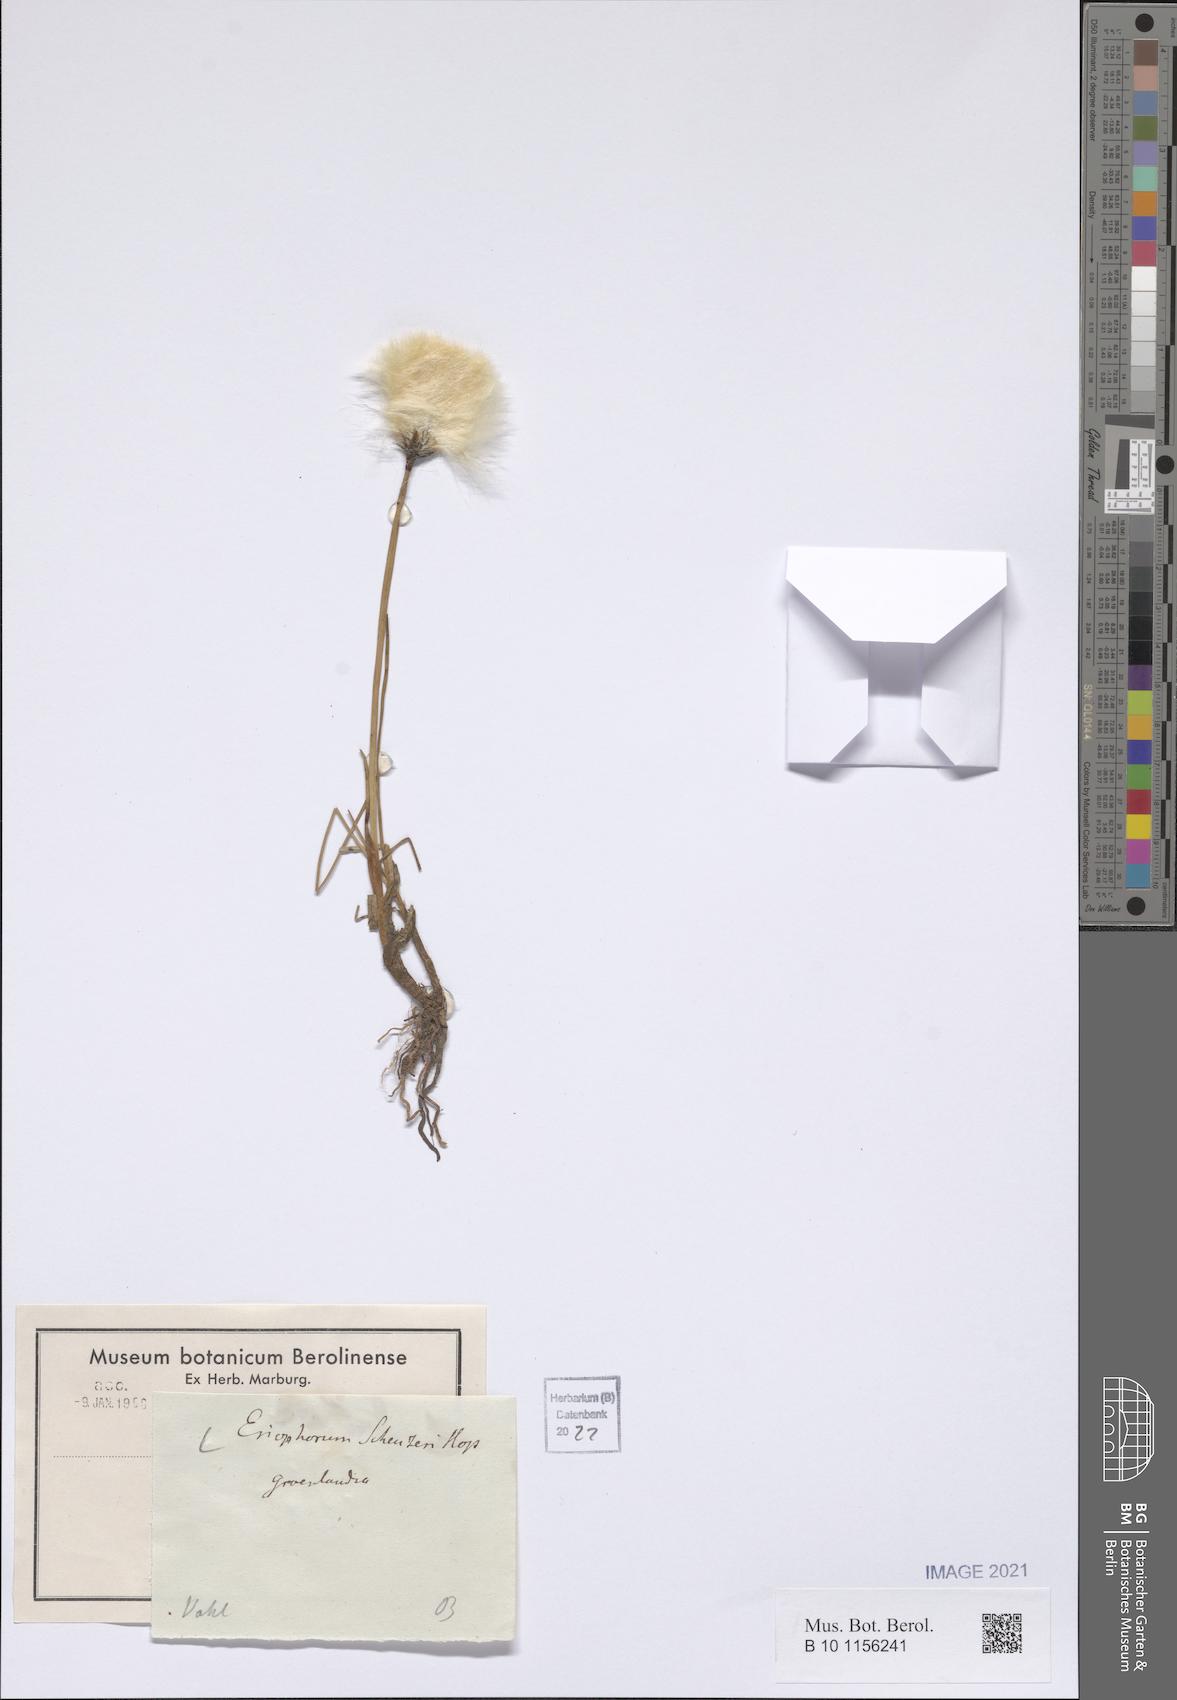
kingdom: Plantae
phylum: Tracheophyta
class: Liliopsida
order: Poales
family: Cyperaceae
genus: Eriophorum
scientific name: Eriophorum scheuchzeri
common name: Scheuchzer's cottongrass
